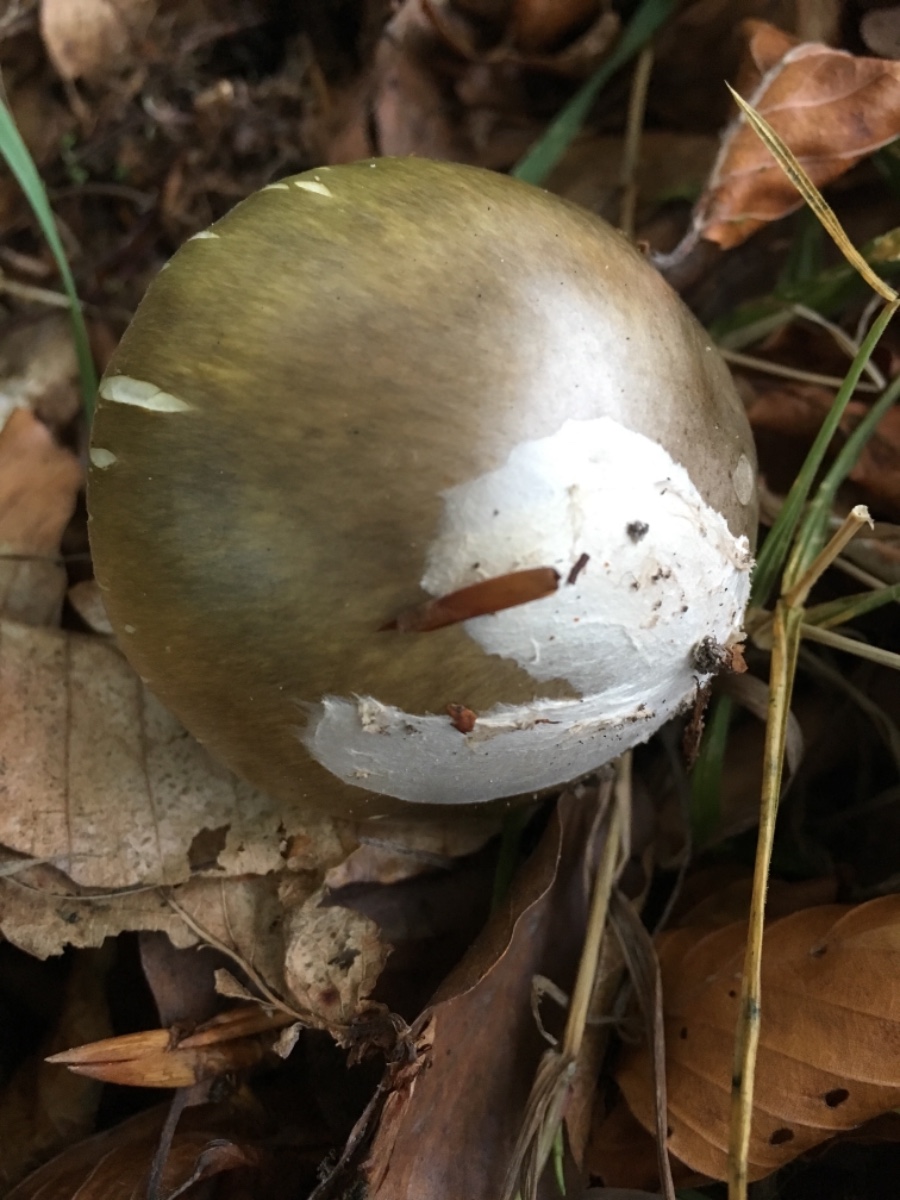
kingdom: Fungi
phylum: Basidiomycota
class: Agaricomycetes
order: Agaricales
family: Amanitaceae
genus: Amanita
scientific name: Amanita phalloides
